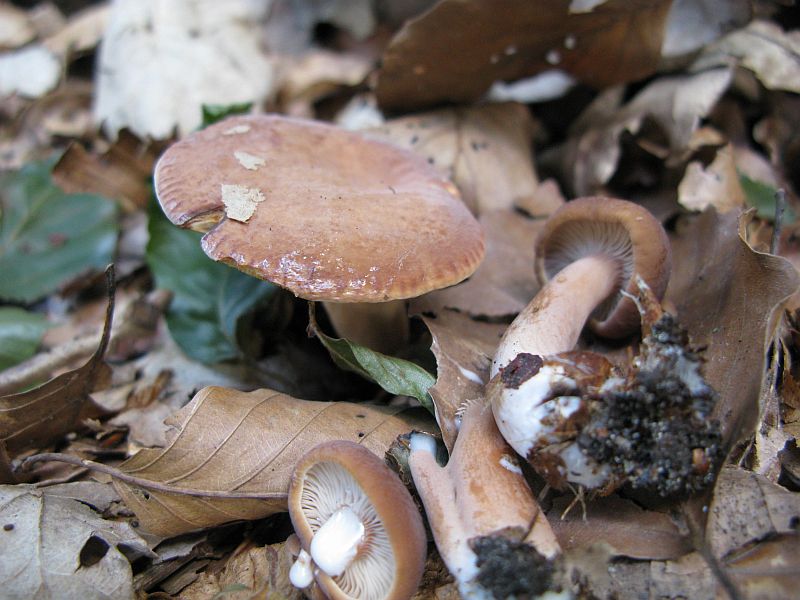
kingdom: Fungi
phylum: Basidiomycota
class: Agaricomycetes
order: Russulales
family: Russulaceae
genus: Lactarius
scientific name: Lactarius subdulcis
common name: sødlig mælkehat
